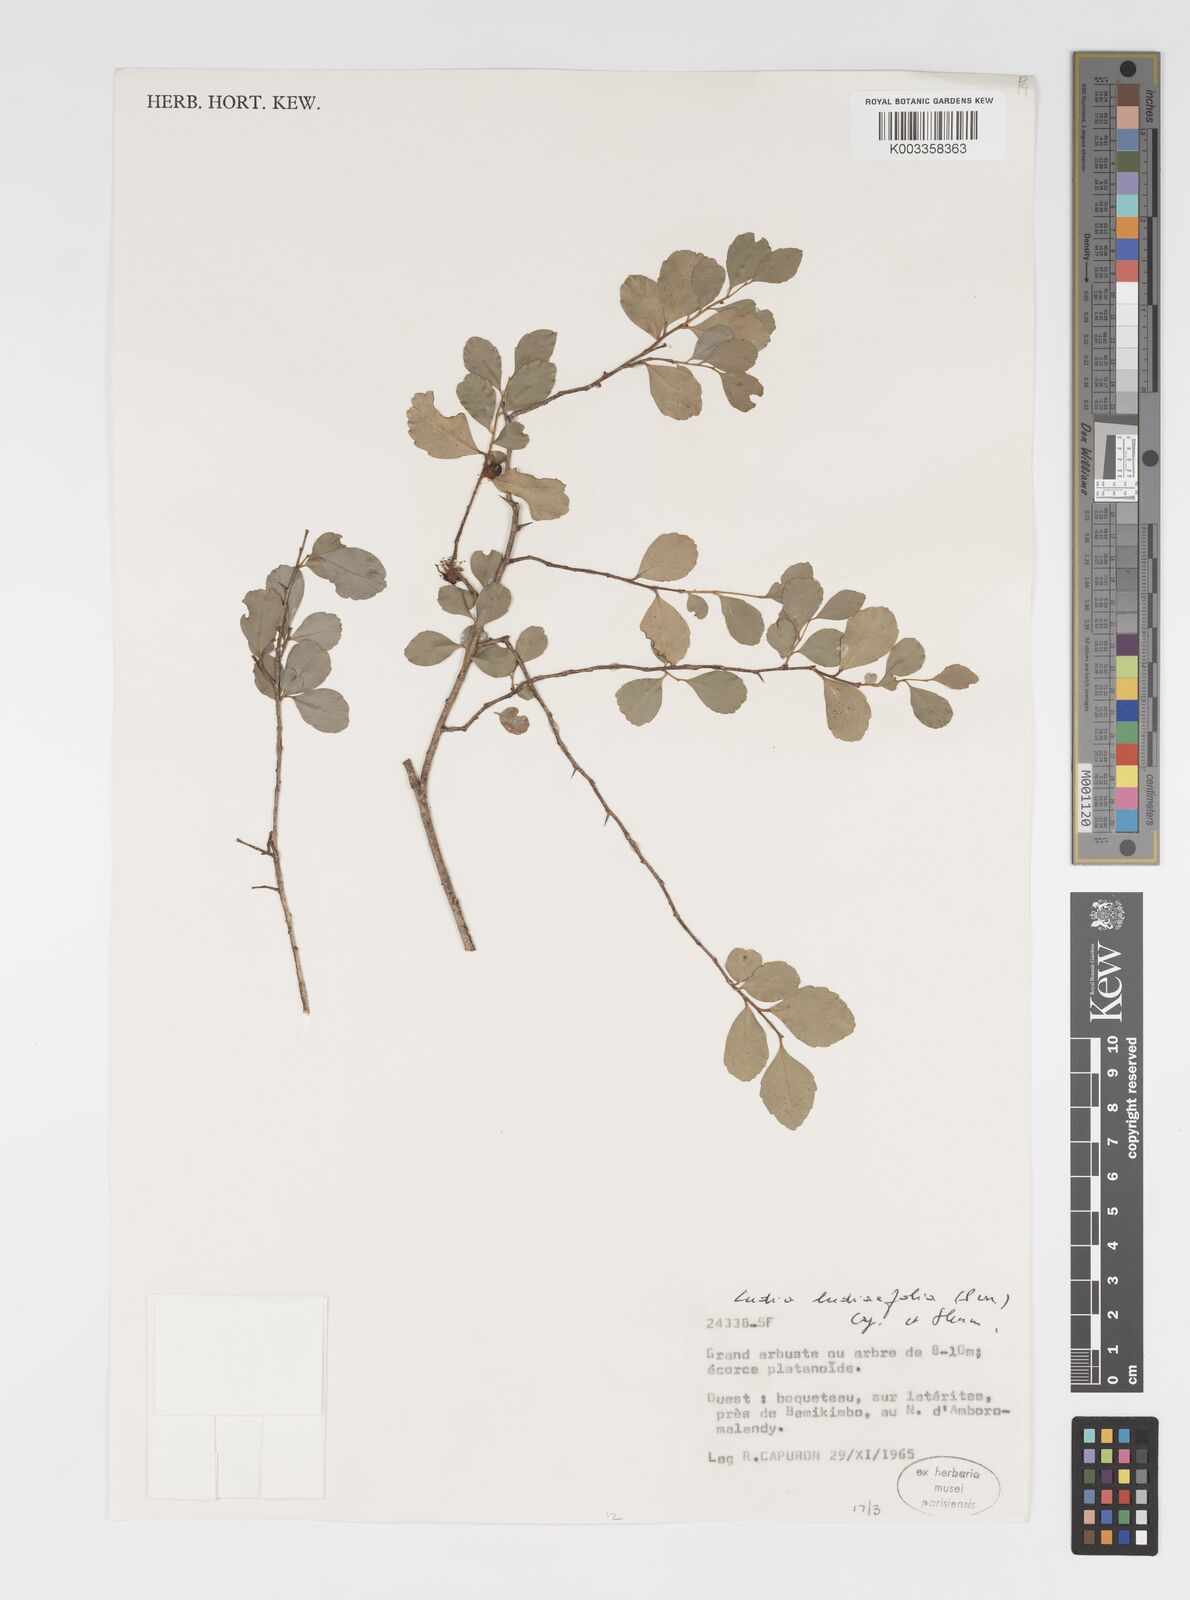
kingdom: Plantae
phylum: Tracheophyta
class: Magnoliopsida
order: Malpighiales
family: Salicaceae
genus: Ludia
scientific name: Ludia
